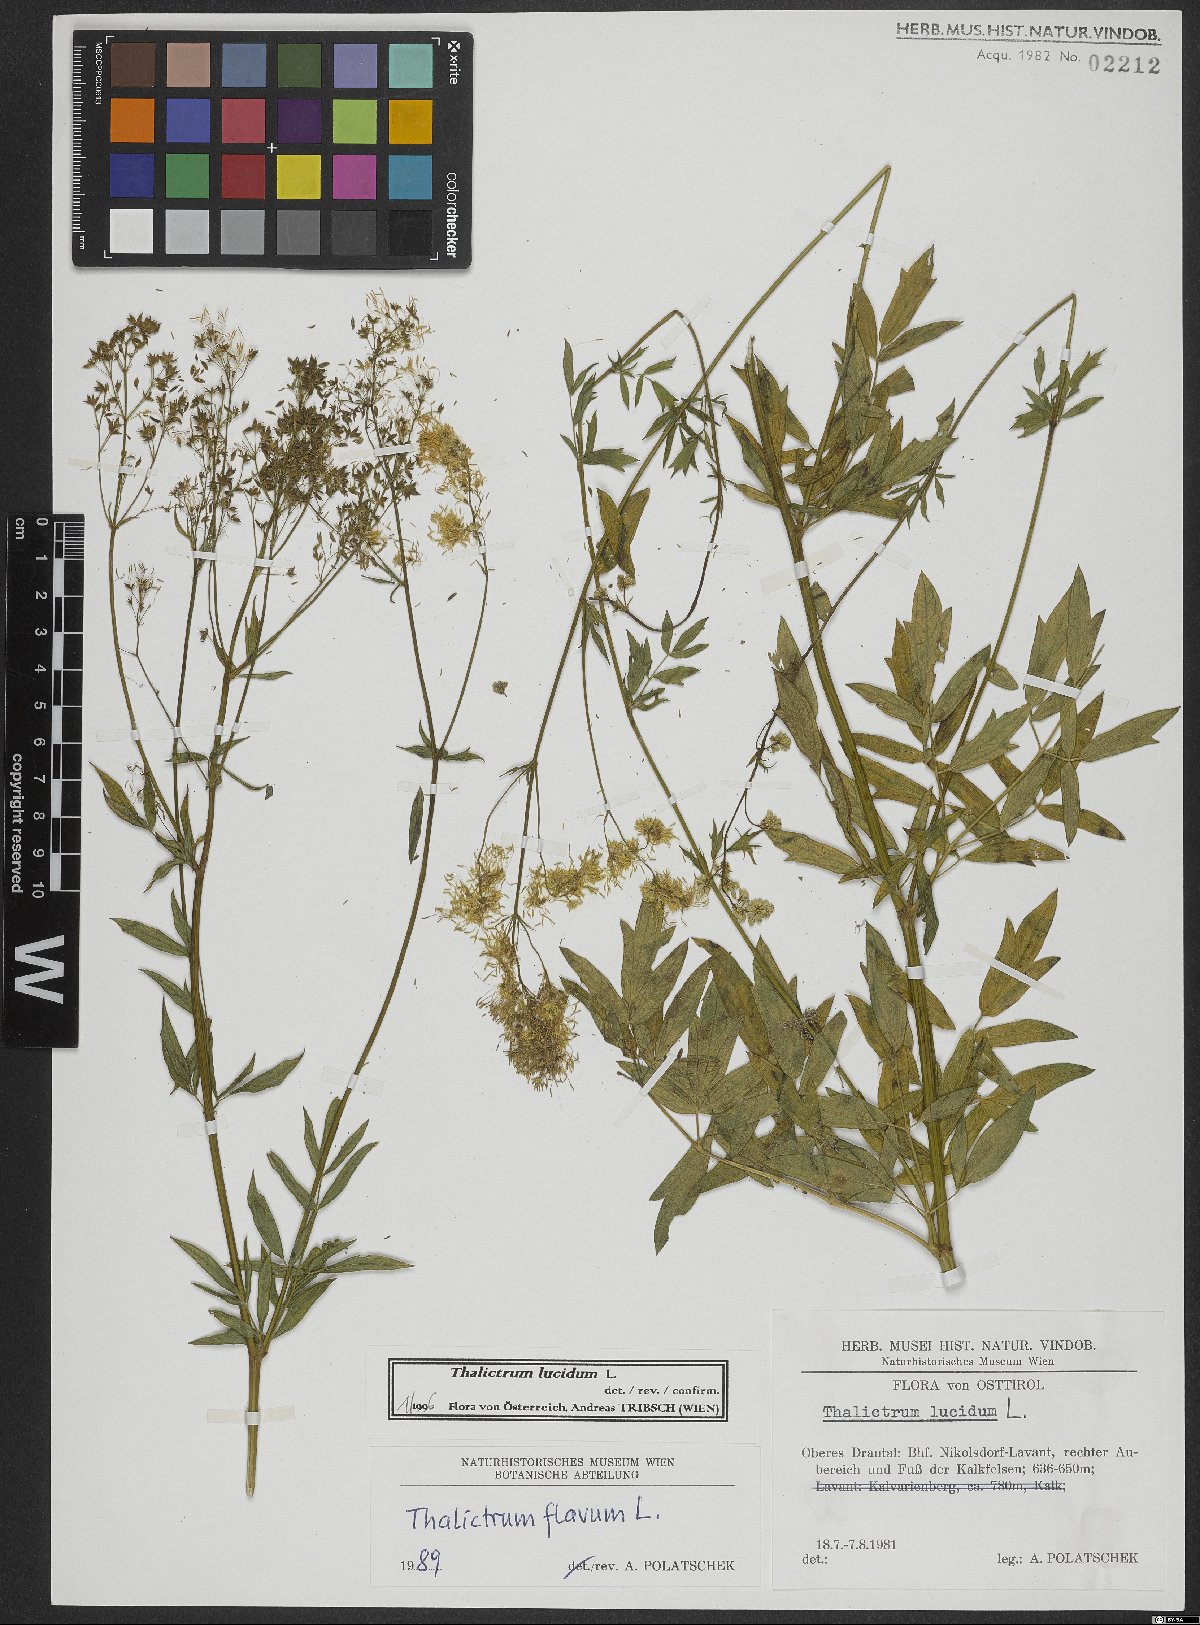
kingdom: Plantae
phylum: Tracheophyta
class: Magnoliopsida
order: Ranunculales
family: Ranunculaceae
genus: Thalictrum
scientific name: Thalictrum lucidum
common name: Shining meadow-rue
